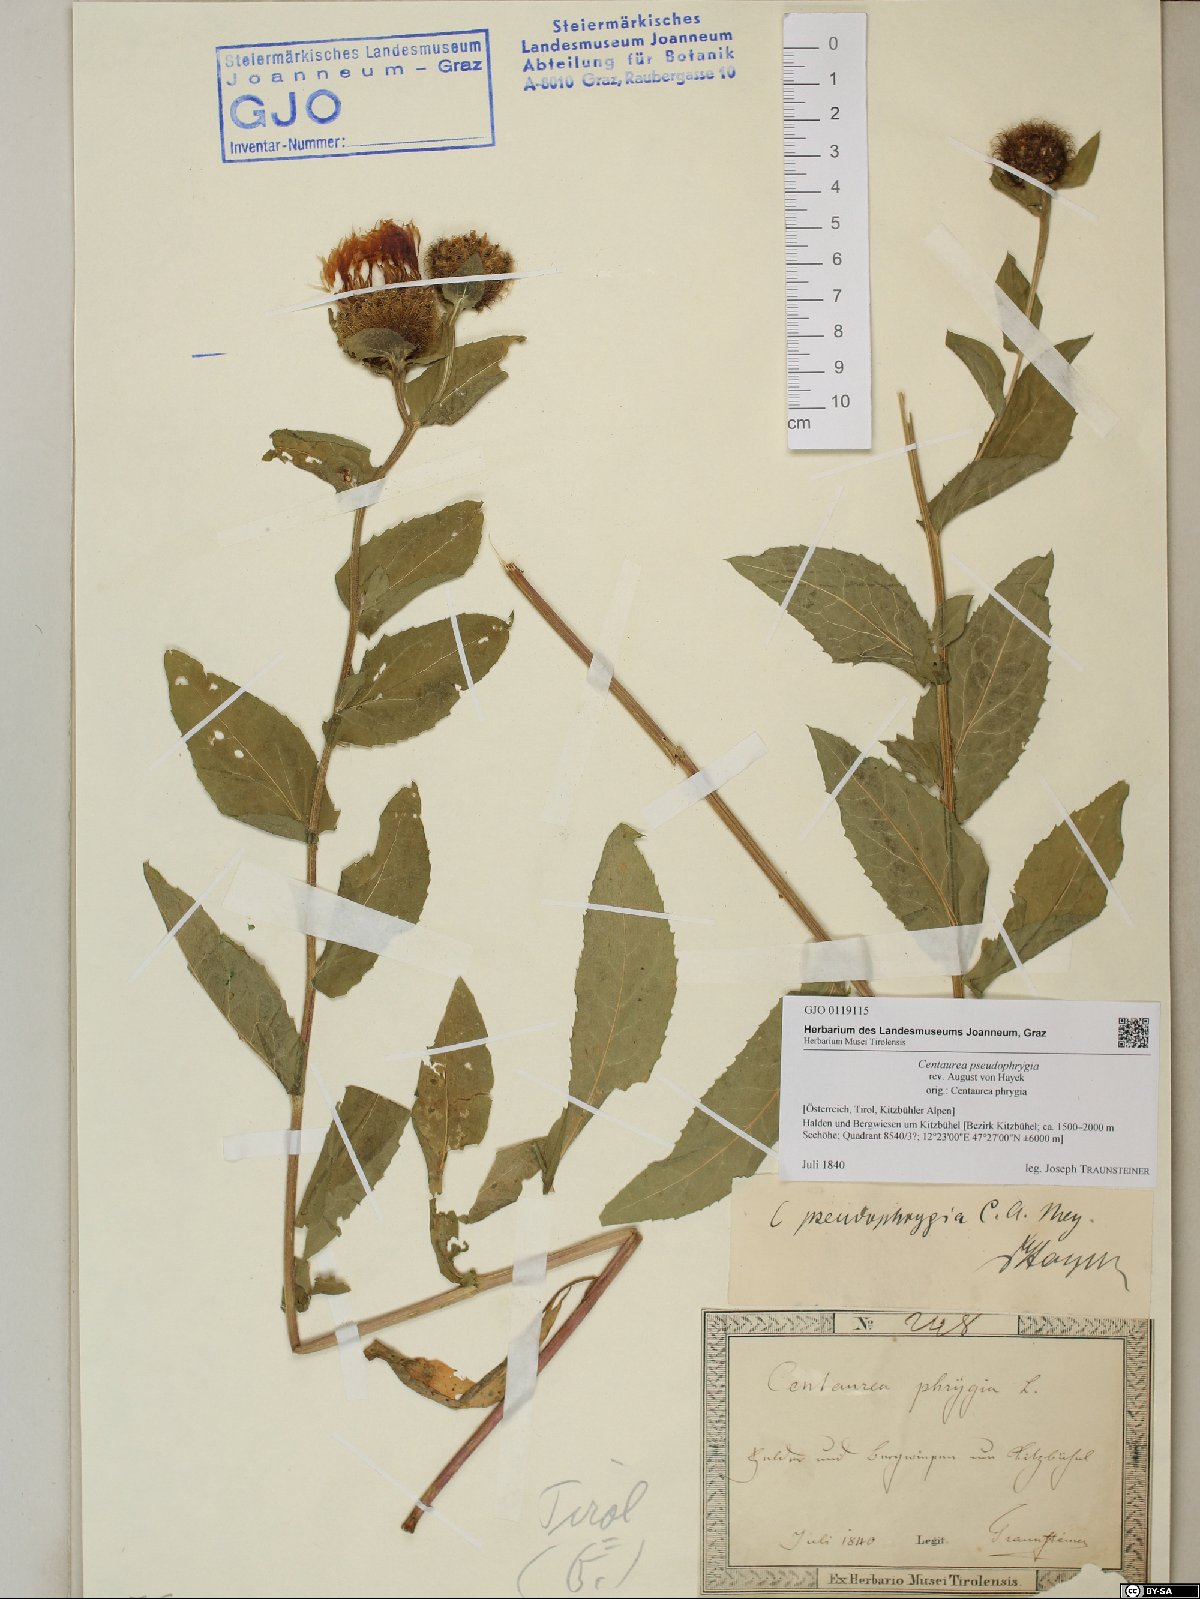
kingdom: Plantae
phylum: Tracheophyta
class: Magnoliopsida
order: Asterales
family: Asteraceae
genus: Centaurea
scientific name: Centaurea pseudophrygia
